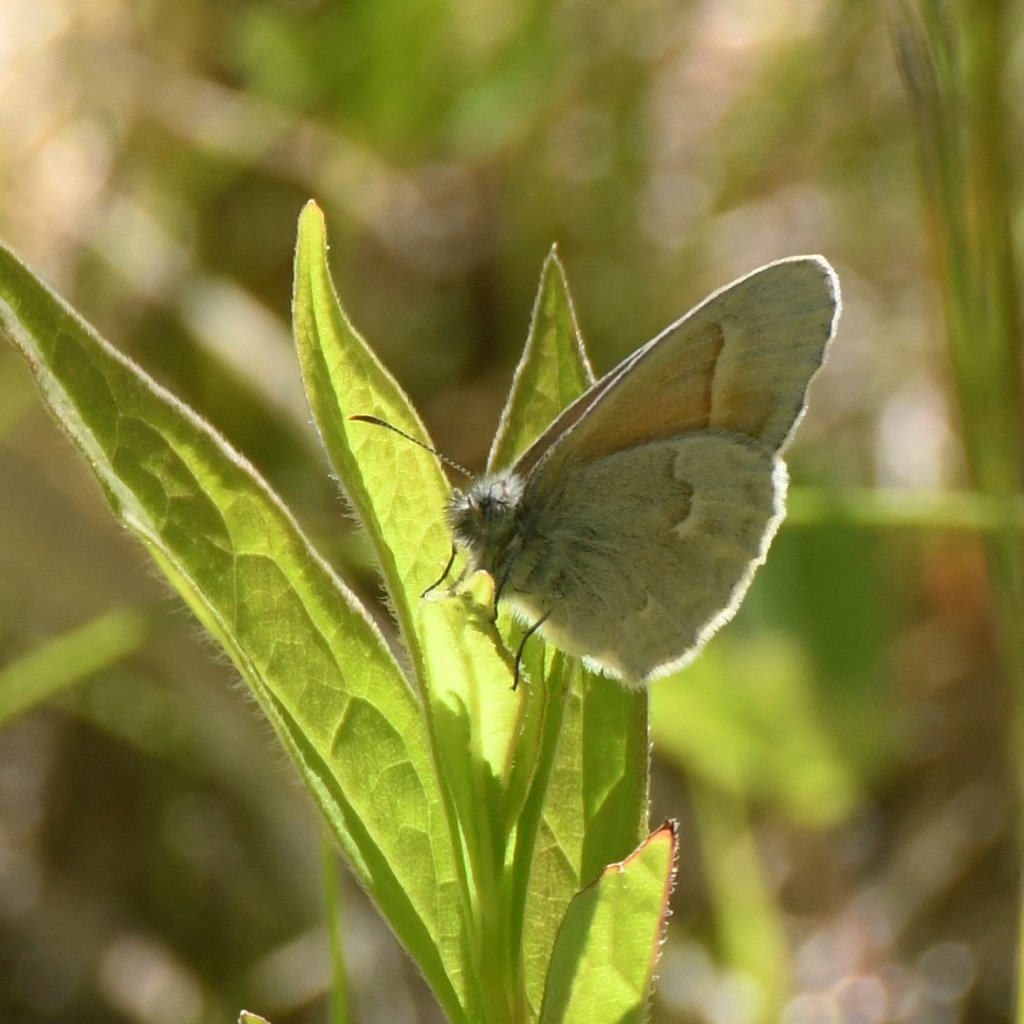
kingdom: Animalia
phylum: Arthropoda
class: Insecta
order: Lepidoptera
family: Nymphalidae
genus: Coenonympha
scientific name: Coenonympha tullia
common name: Large Heath
